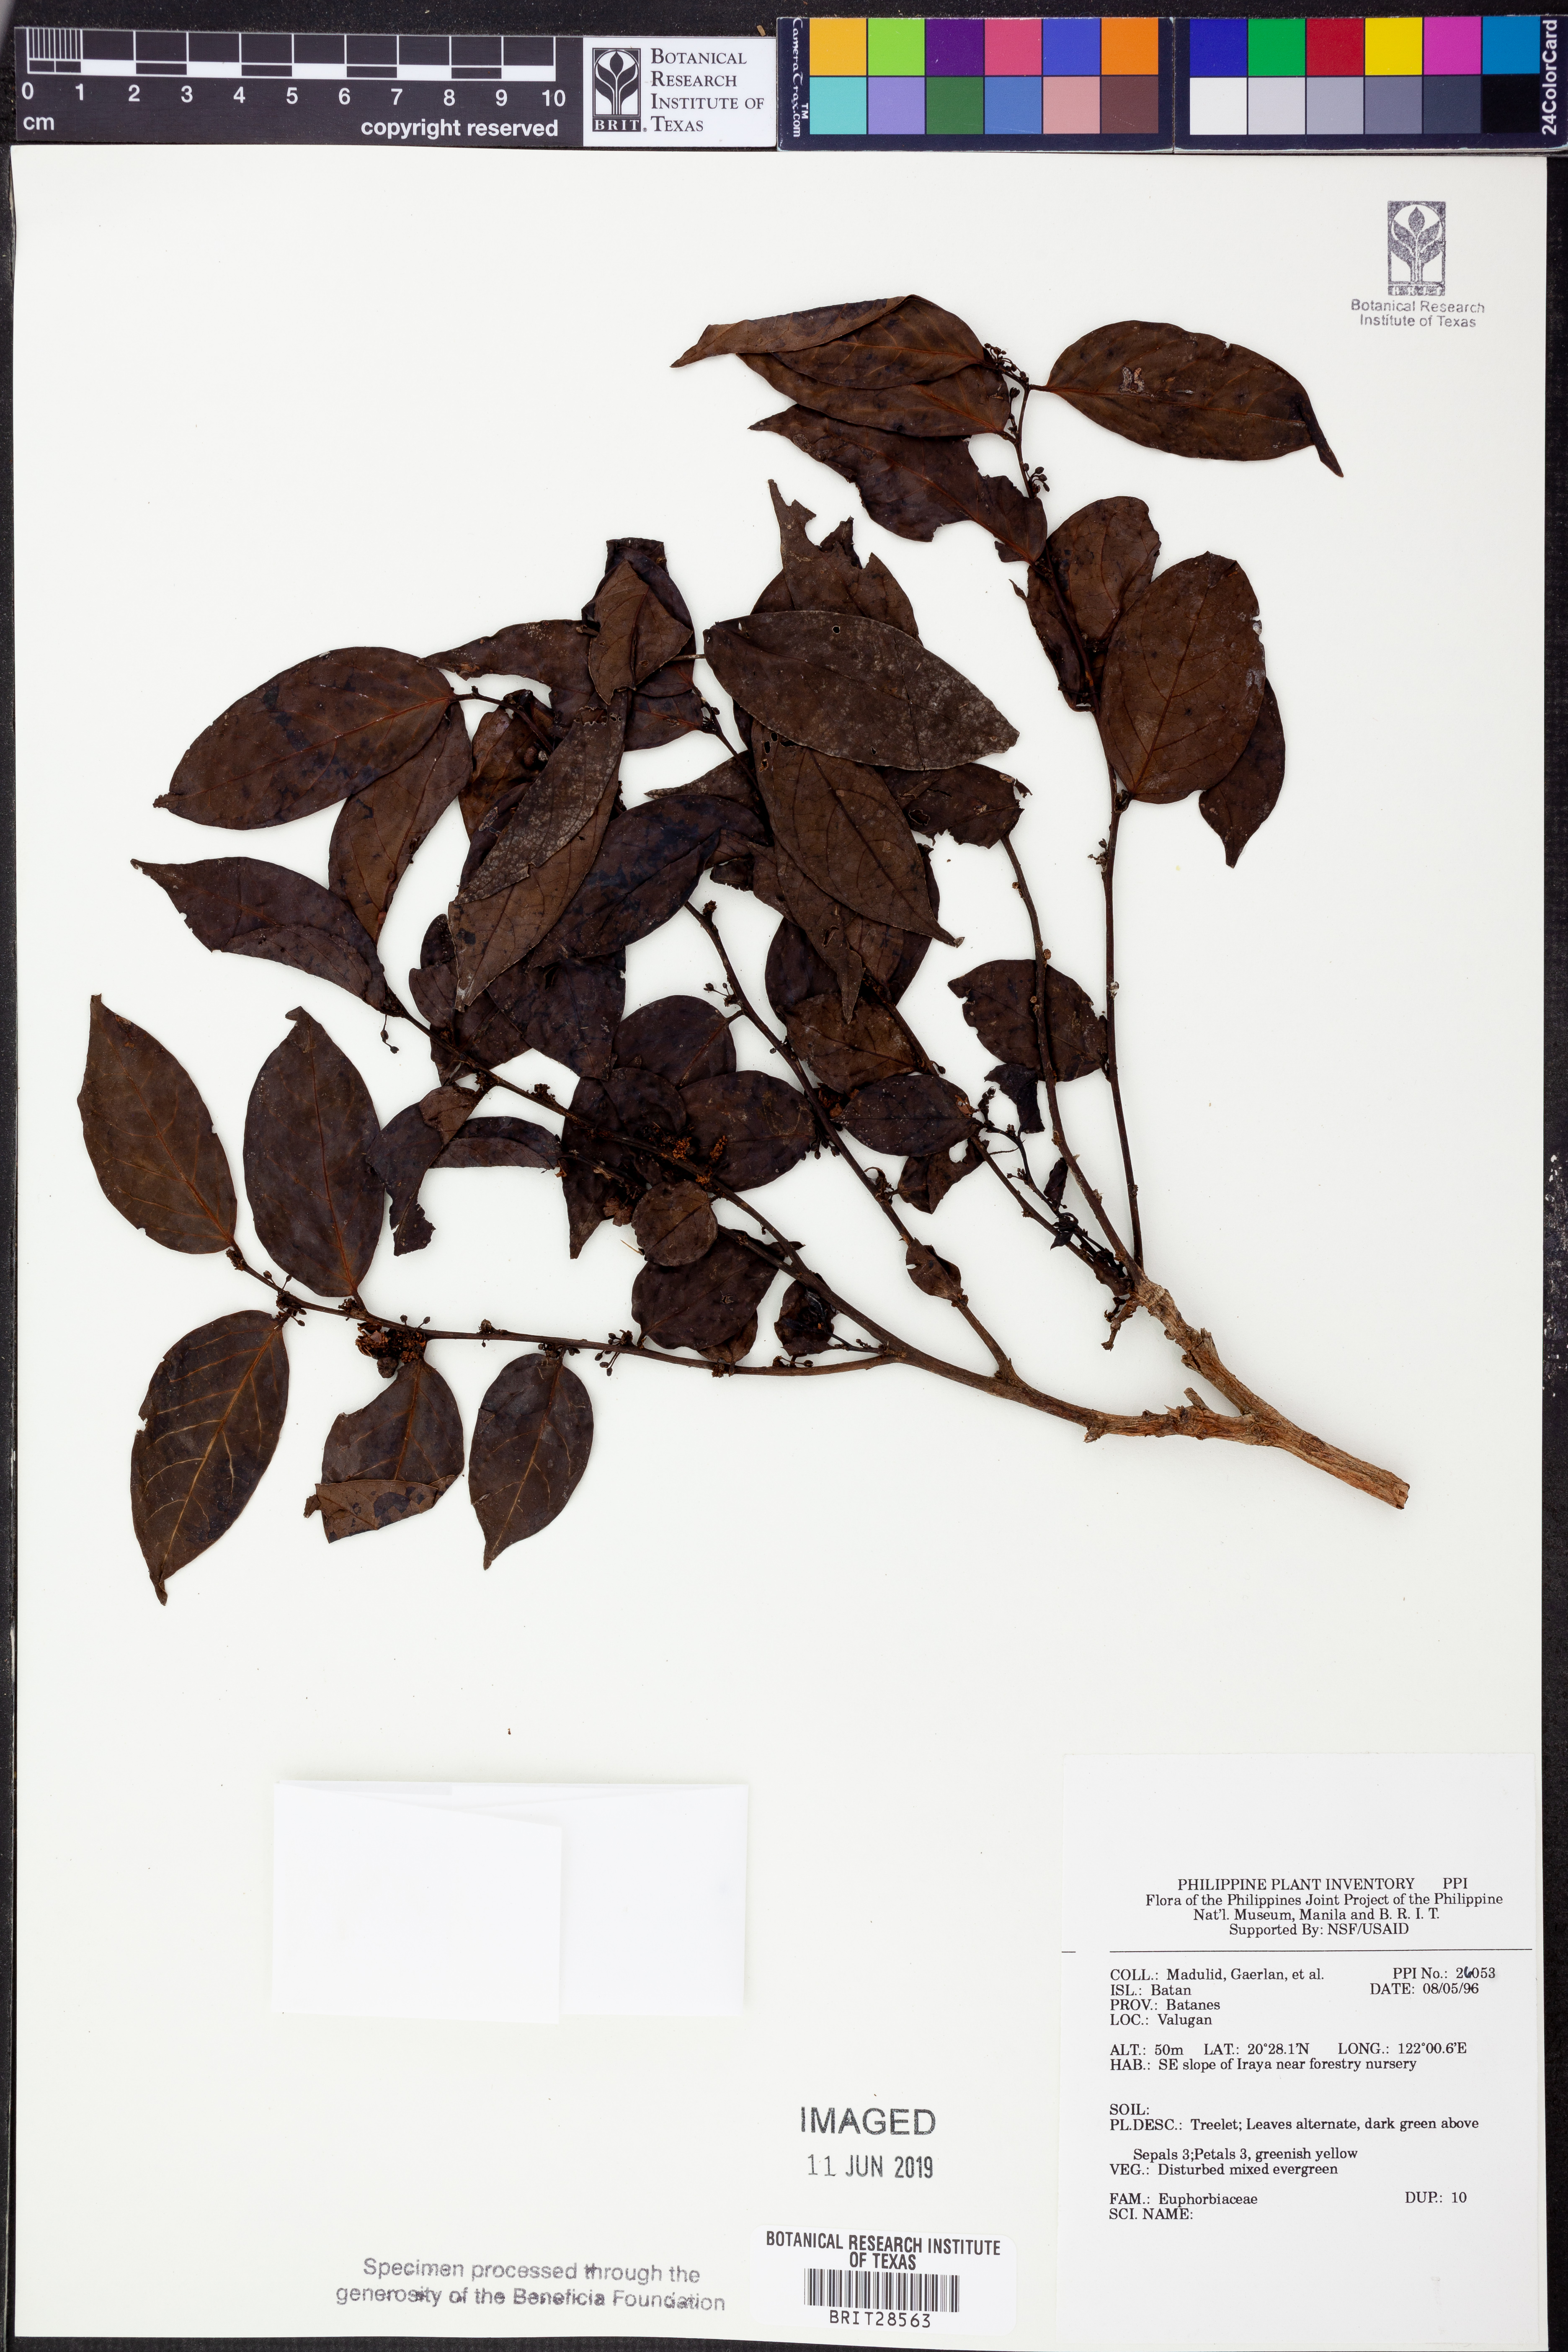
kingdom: Plantae
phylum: Tracheophyta
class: Magnoliopsida
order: Malpighiales
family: Euphorbiaceae
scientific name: Euphorbiaceae
